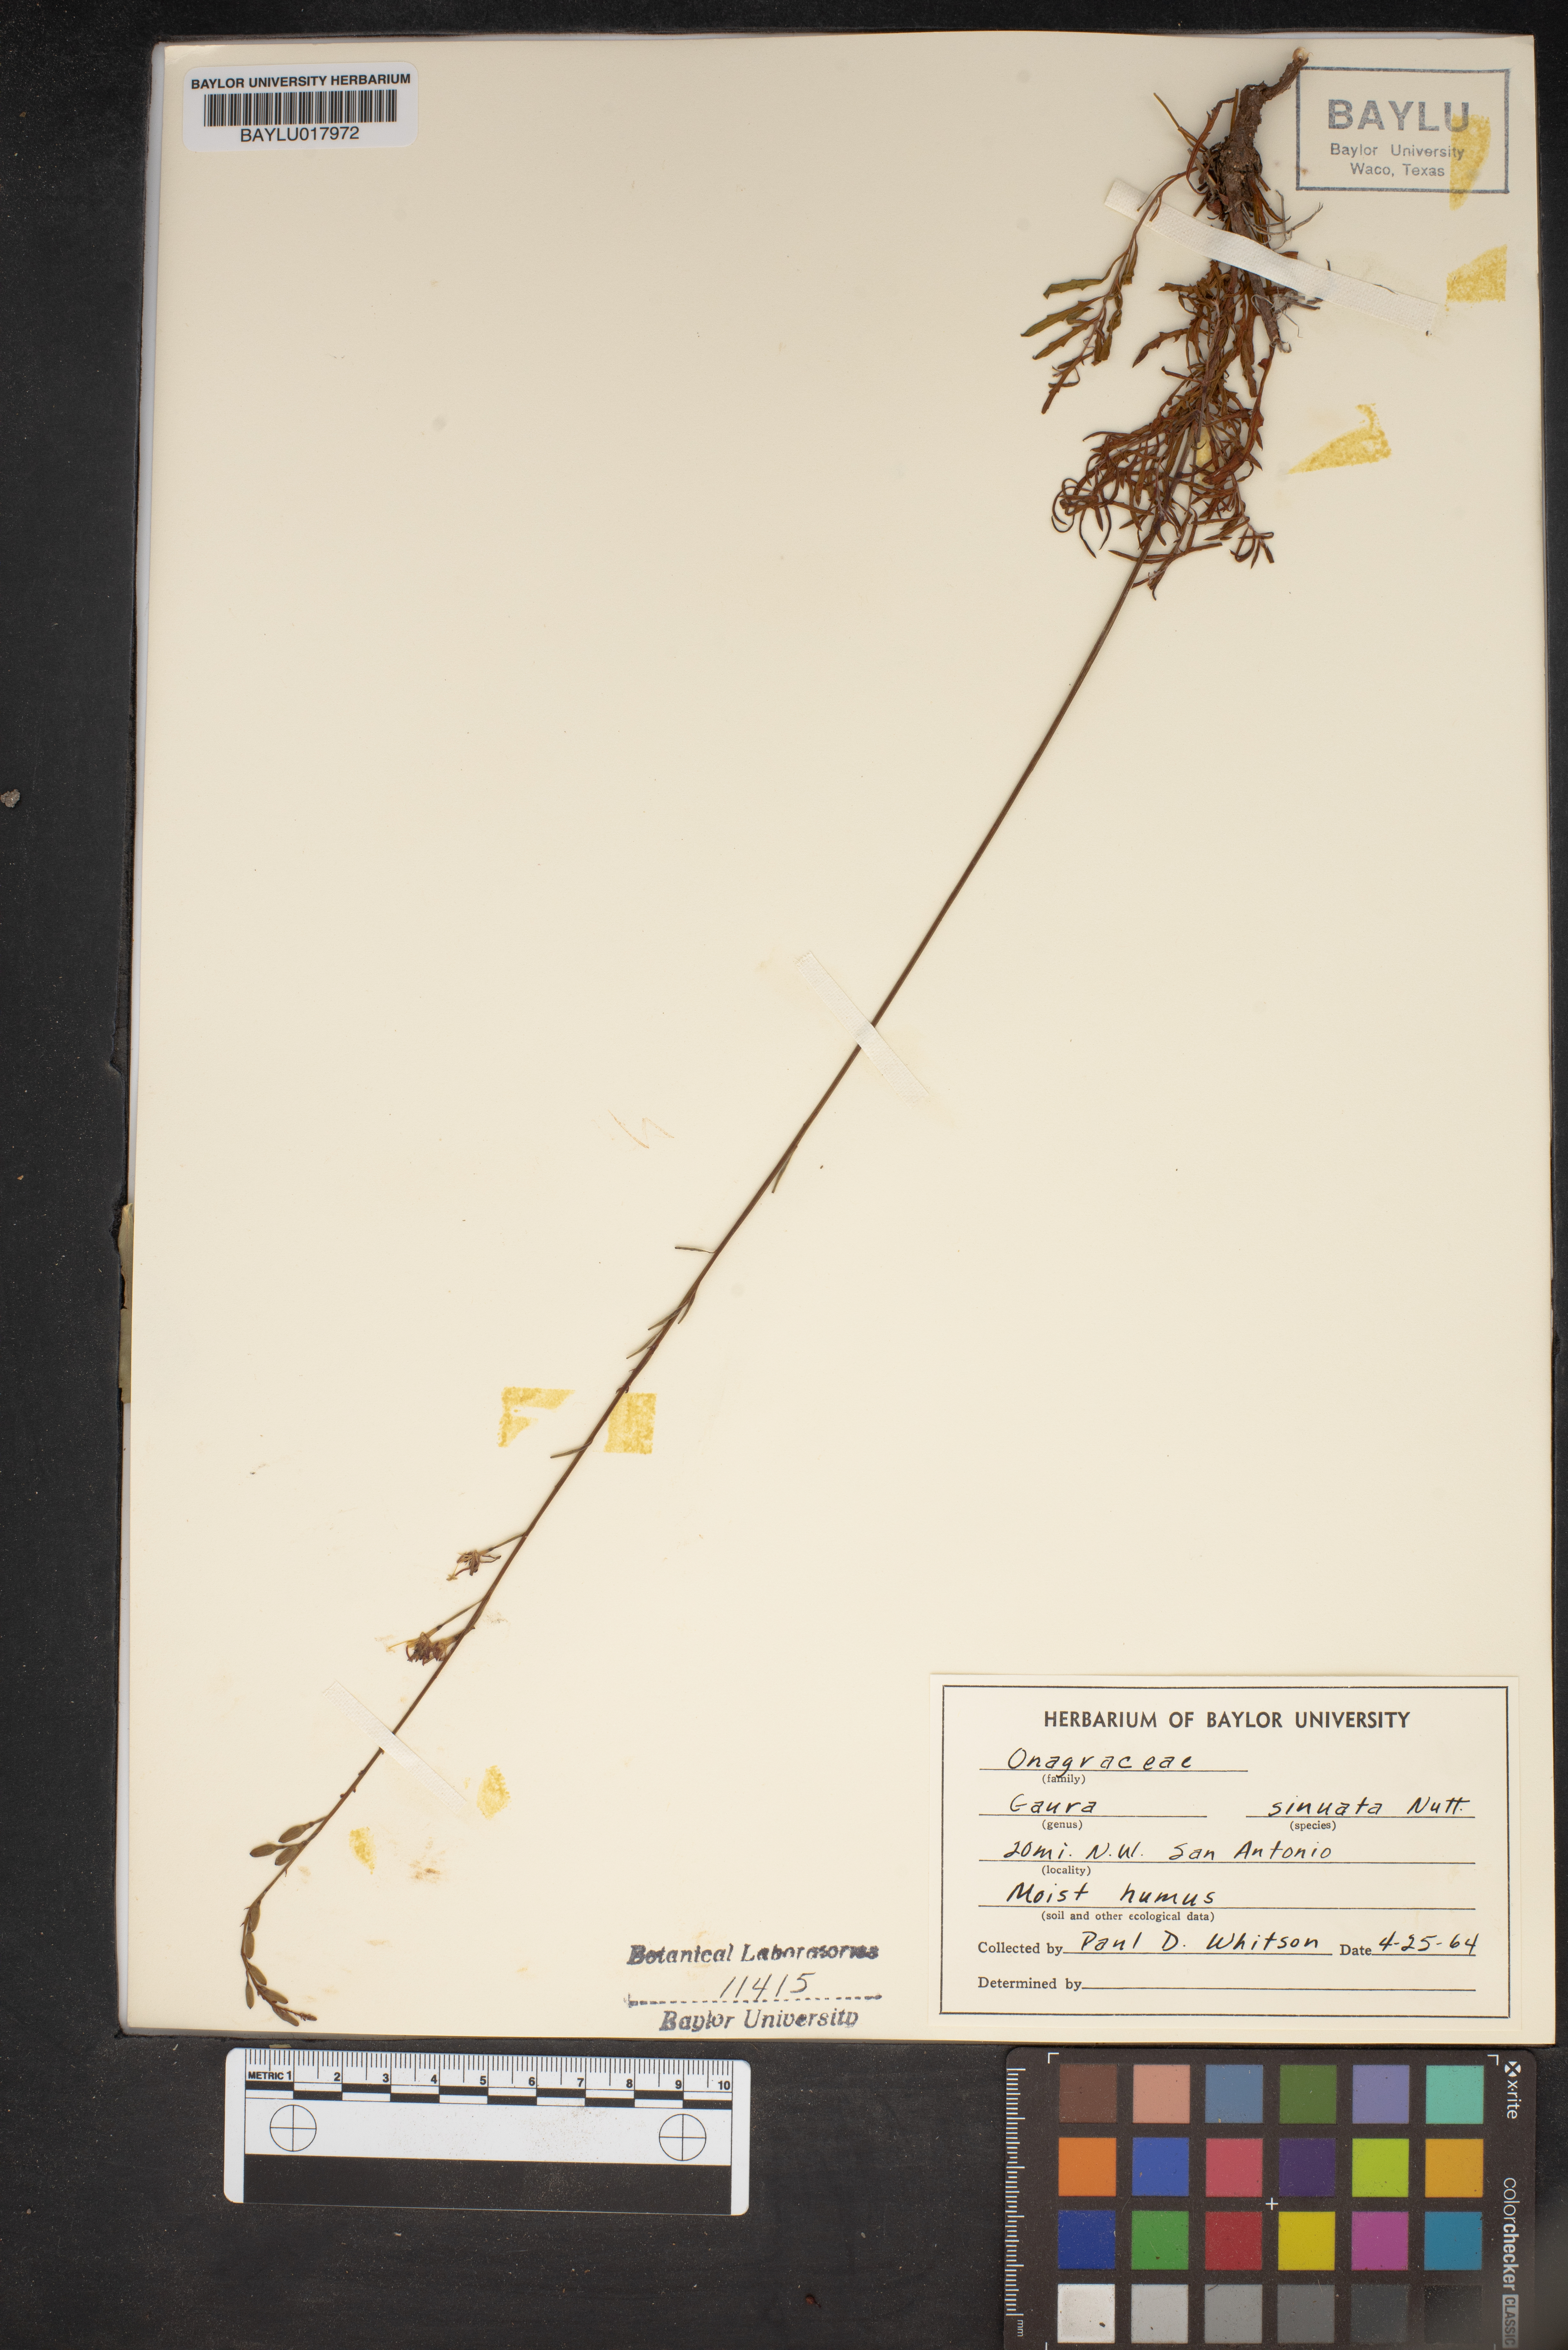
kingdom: Plantae
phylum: Tracheophyta
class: Magnoliopsida
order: Myrtales
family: Onagraceae
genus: Oenothera
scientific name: Oenothera sinuosa
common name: Wavyleaf beeblossom
